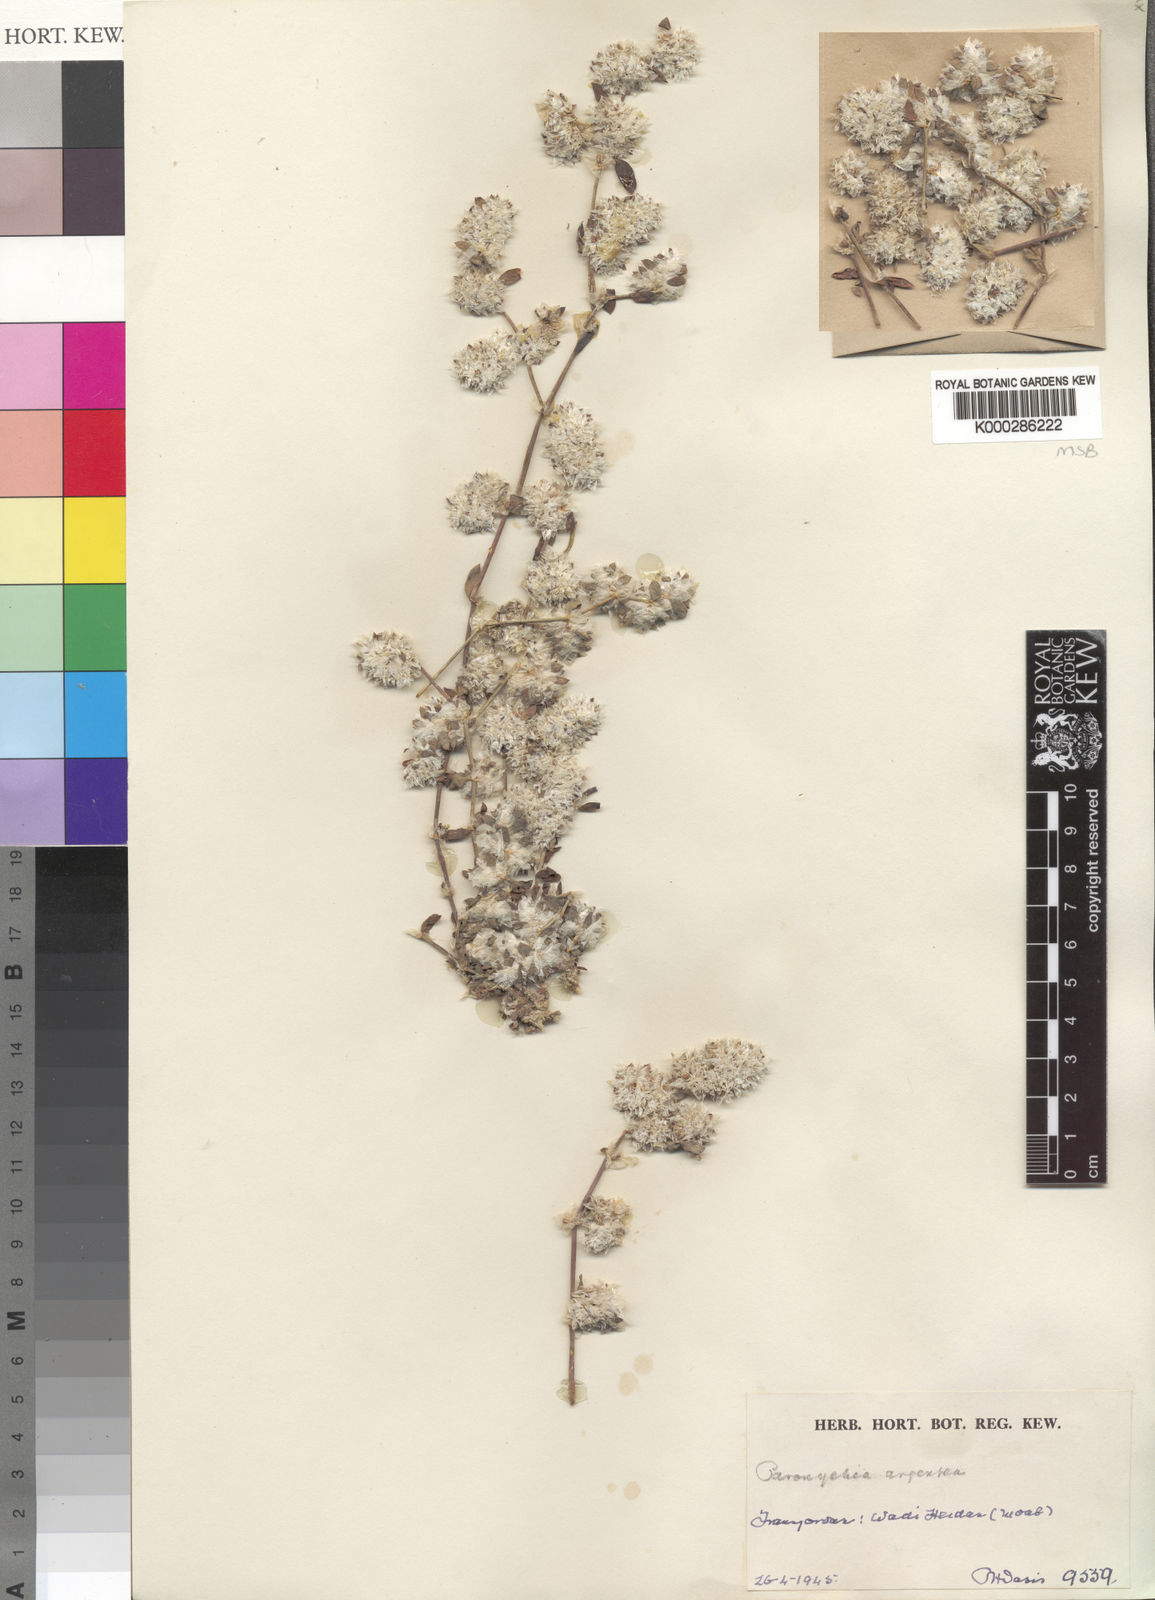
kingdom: Plantae
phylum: Tracheophyta
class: Magnoliopsida
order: Caryophyllales
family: Caryophyllaceae
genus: Paronychia
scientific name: Paronychia argentea
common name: Silver nailroot
